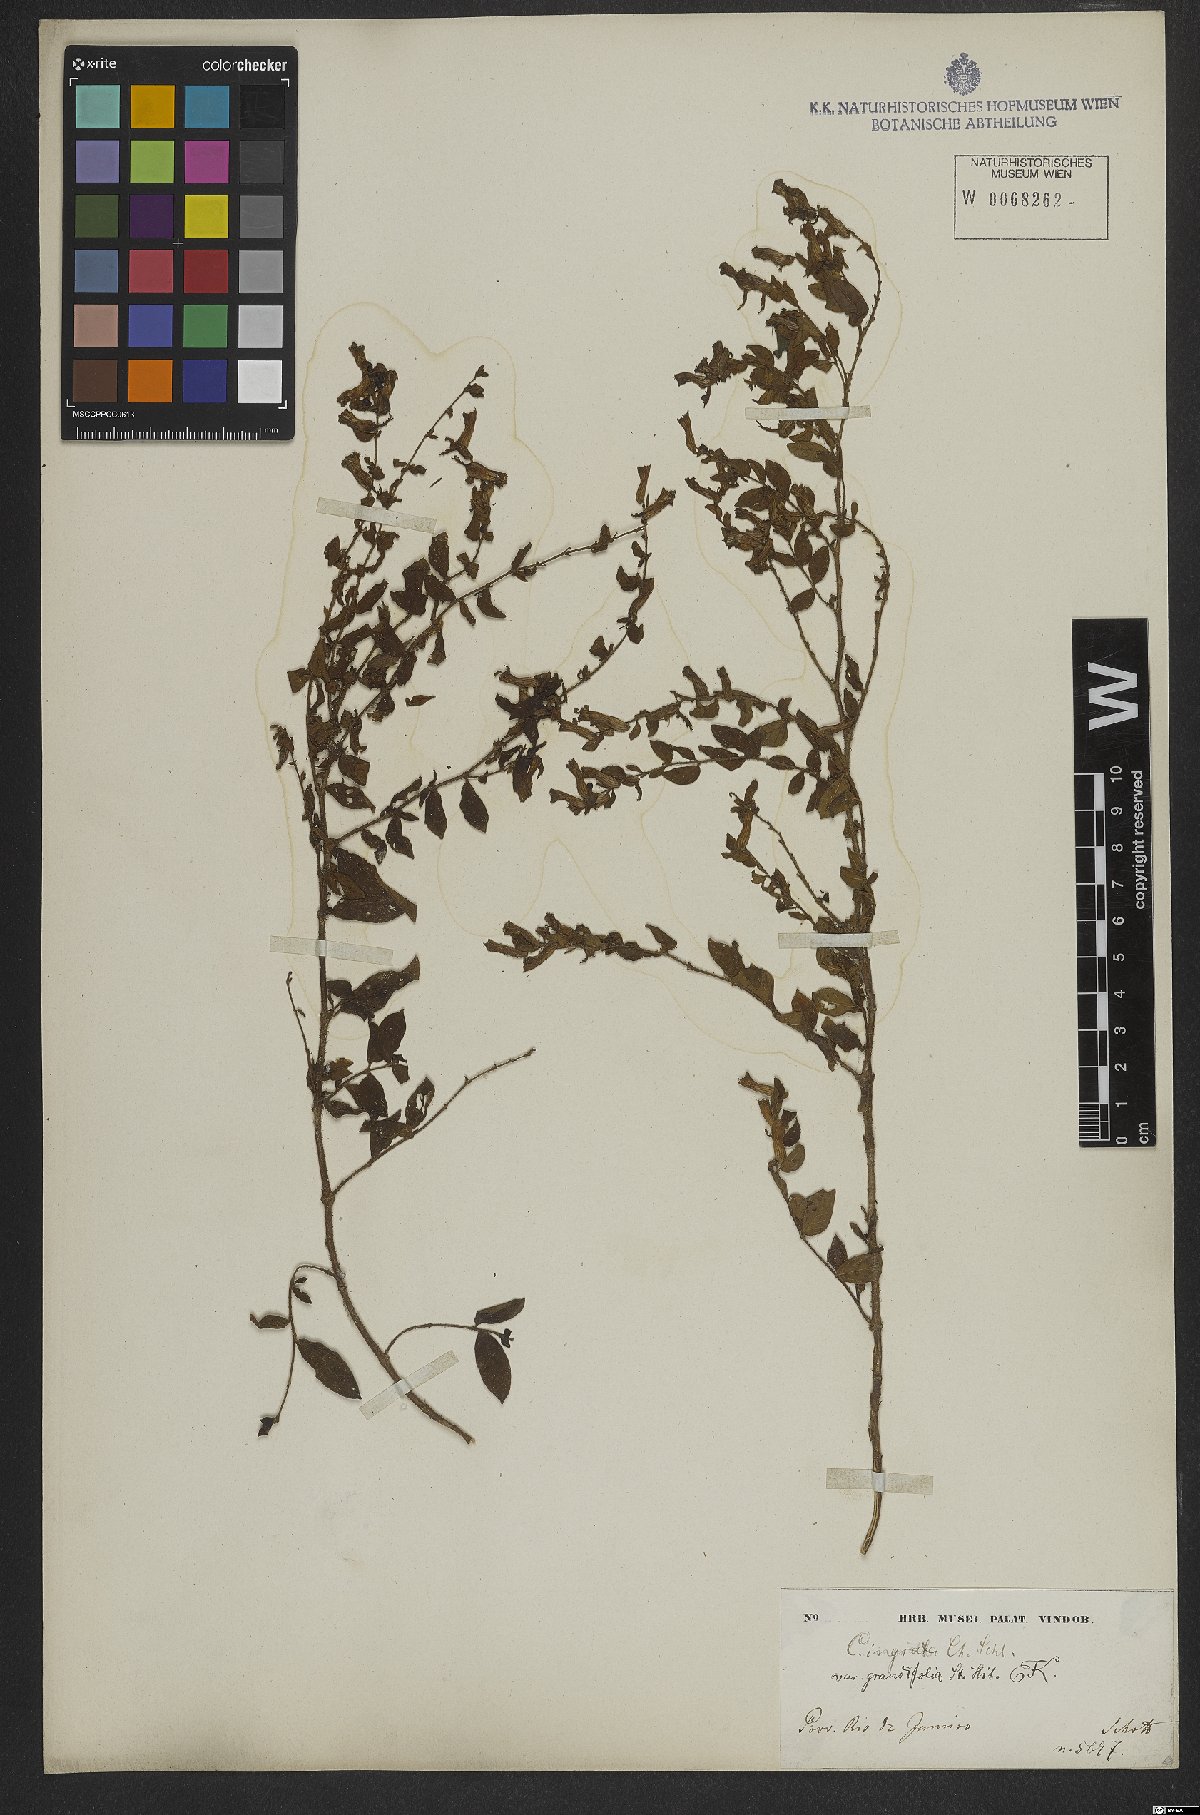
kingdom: Plantae
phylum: Tracheophyta
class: Magnoliopsida
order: Myrtales
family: Lythraceae
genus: Cuphea
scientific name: Cuphea ingrata
